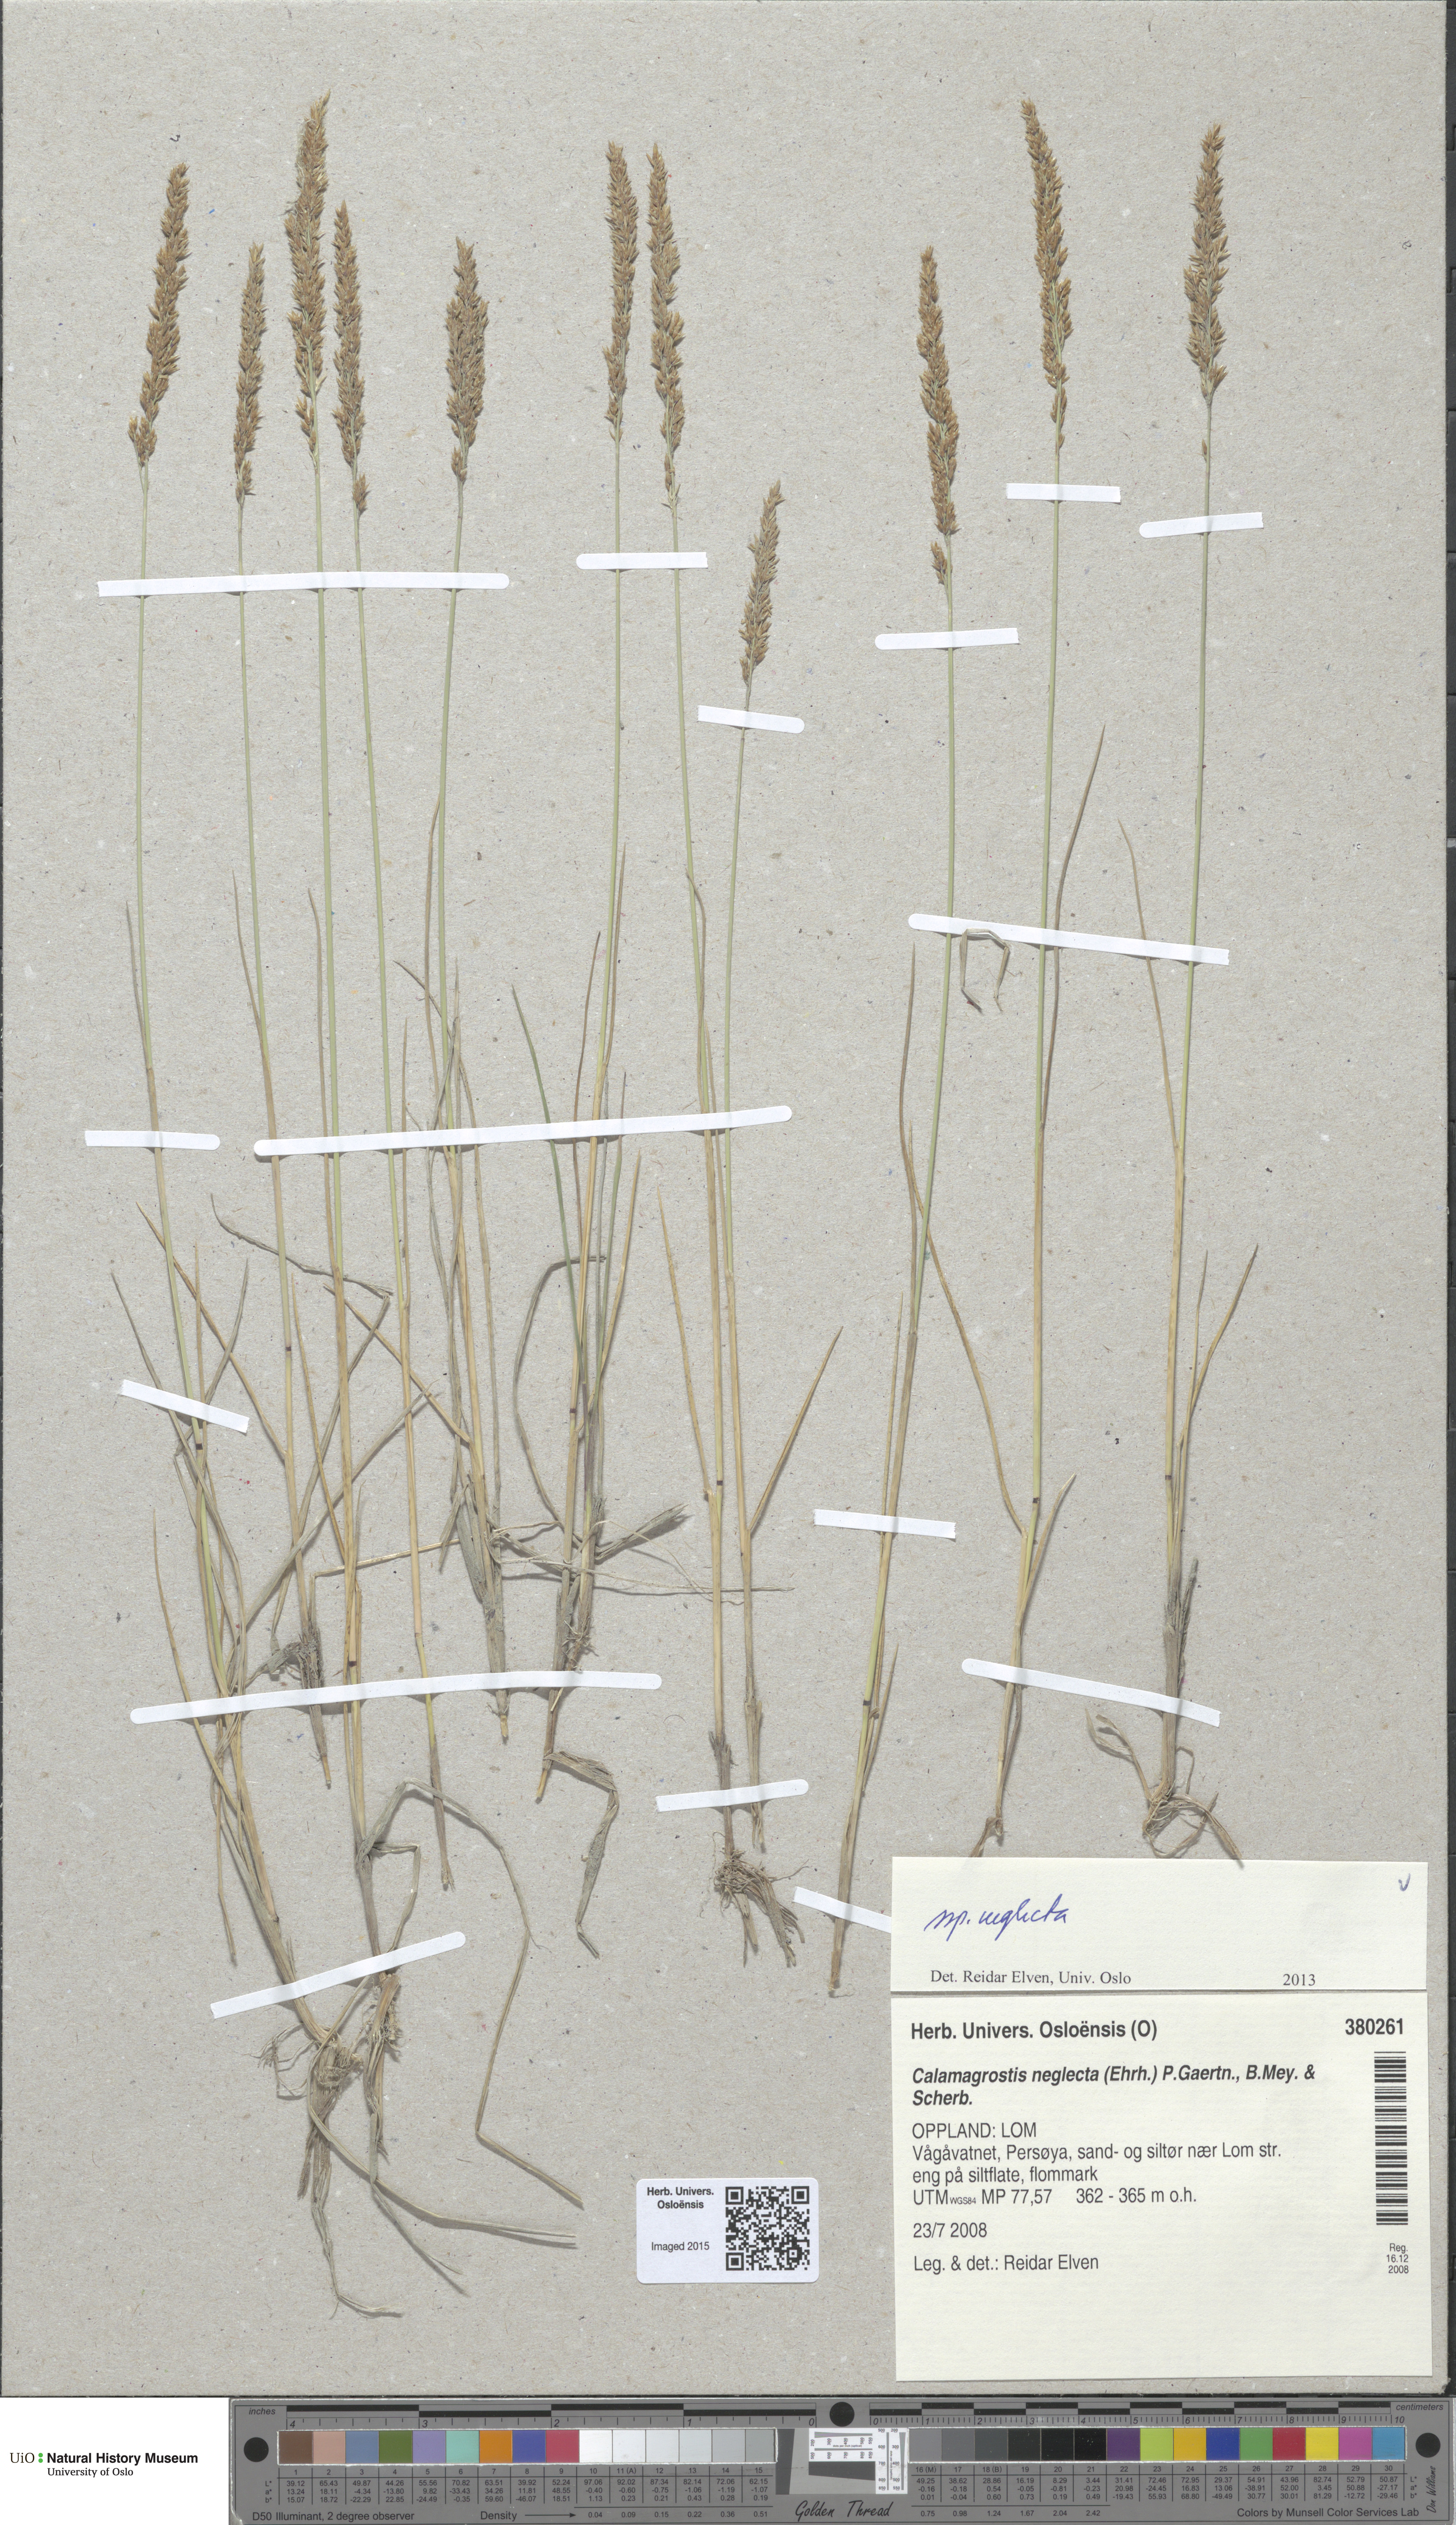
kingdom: Plantae
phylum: Tracheophyta
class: Liliopsida
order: Poales
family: Poaceae
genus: Achnatherum
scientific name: Achnatherum calamagrostis
